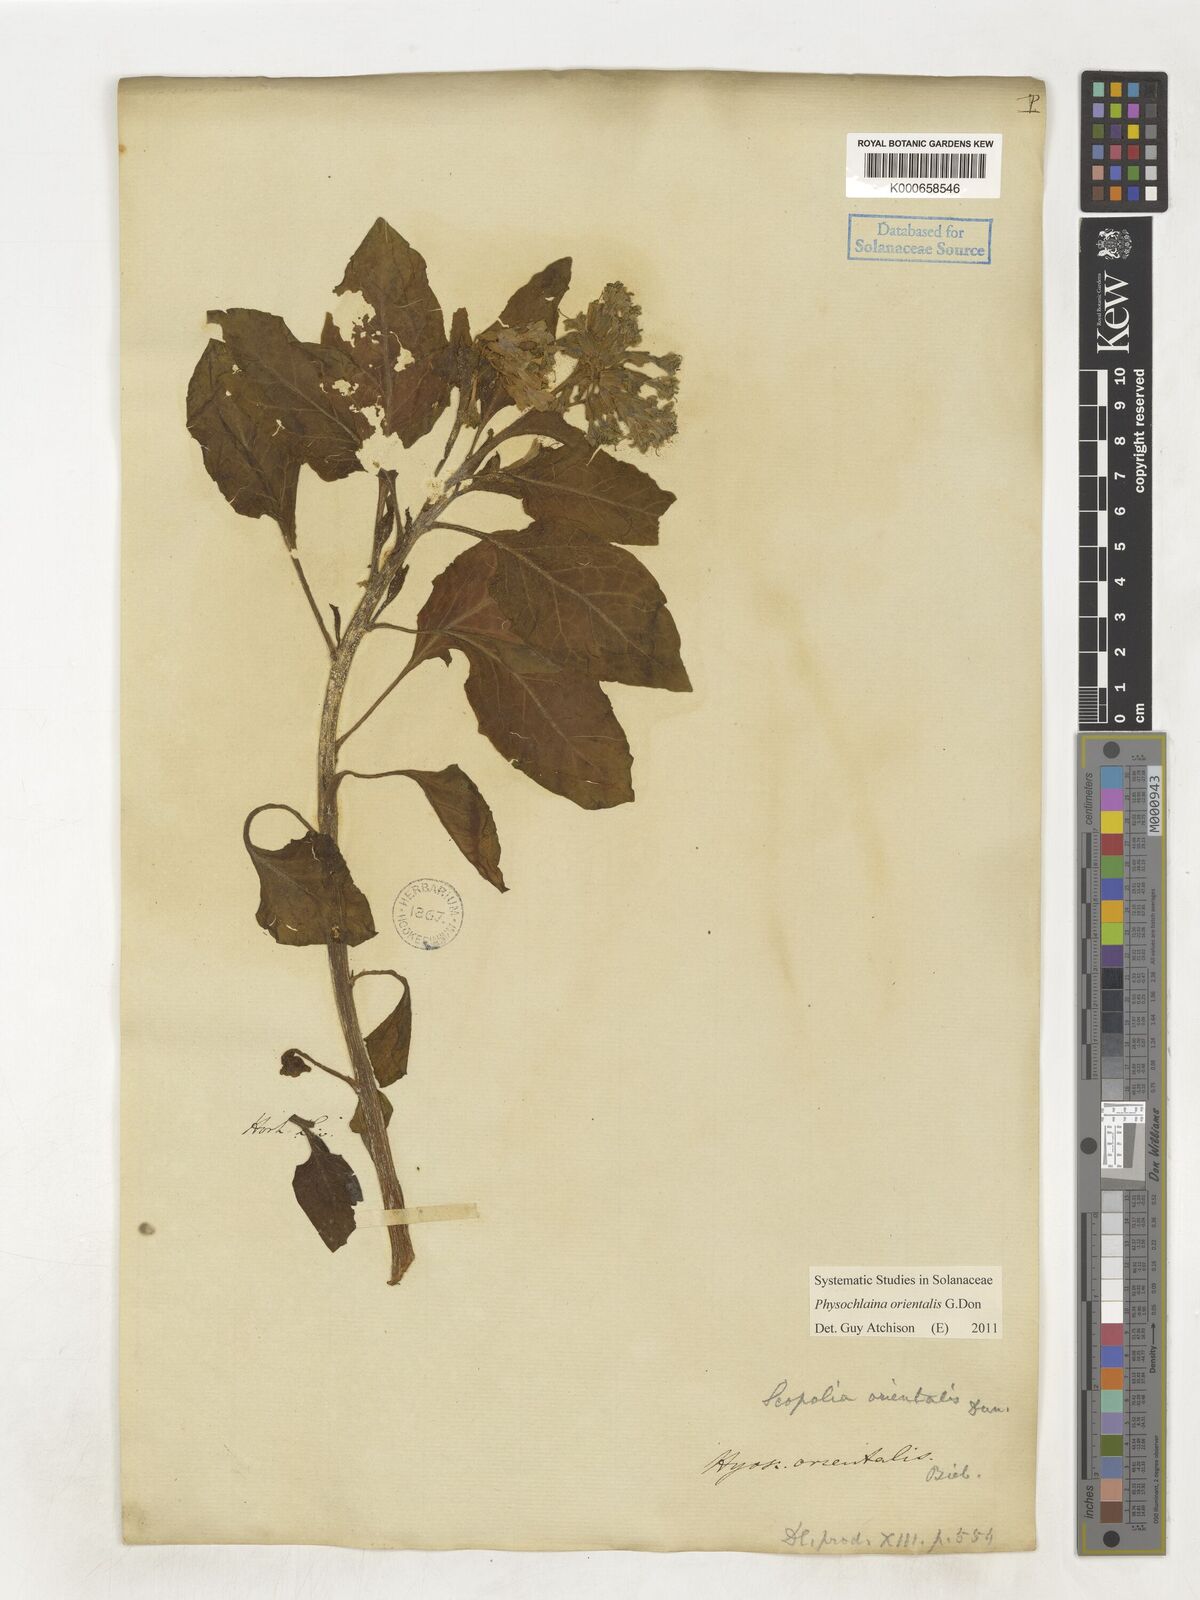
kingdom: Plantae
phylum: Tracheophyta
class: Magnoliopsida
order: Solanales
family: Solanaceae
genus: Physochlaina
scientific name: Physochlaina orientalis
